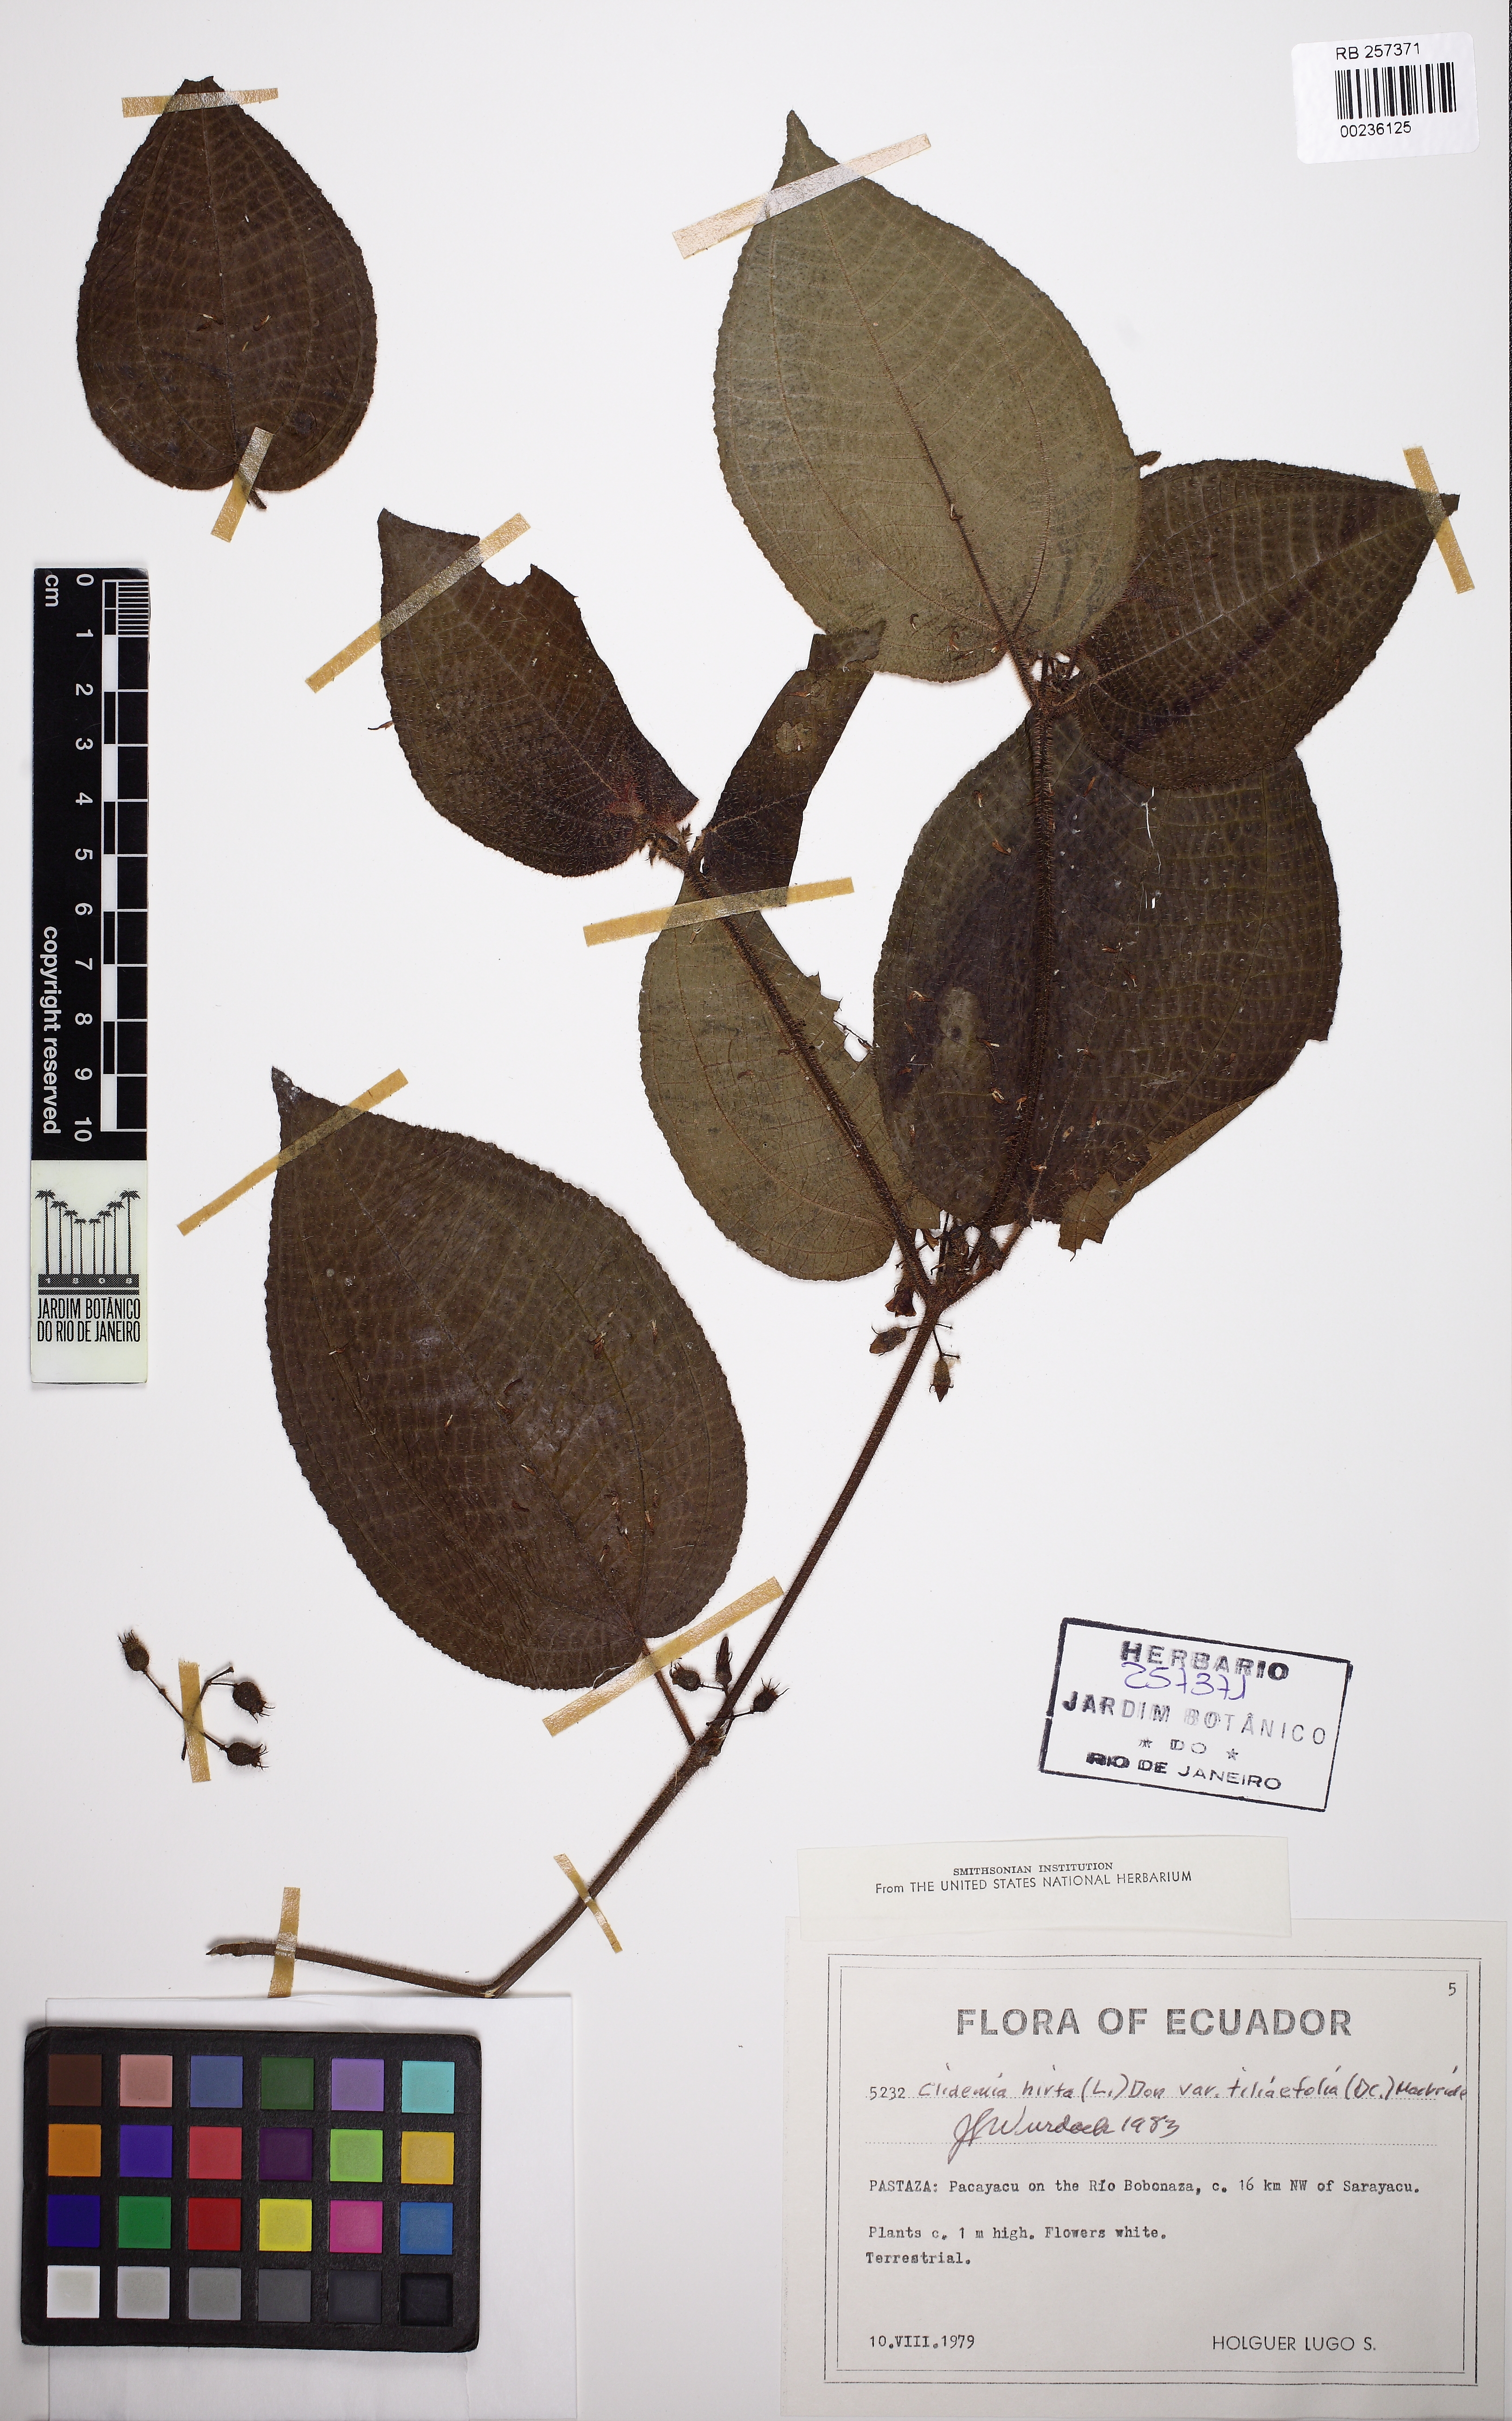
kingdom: Plantae
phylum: Tracheophyta
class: Magnoliopsida
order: Myrtales
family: Melastomataceae
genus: Miconia
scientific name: Miconia crenata
